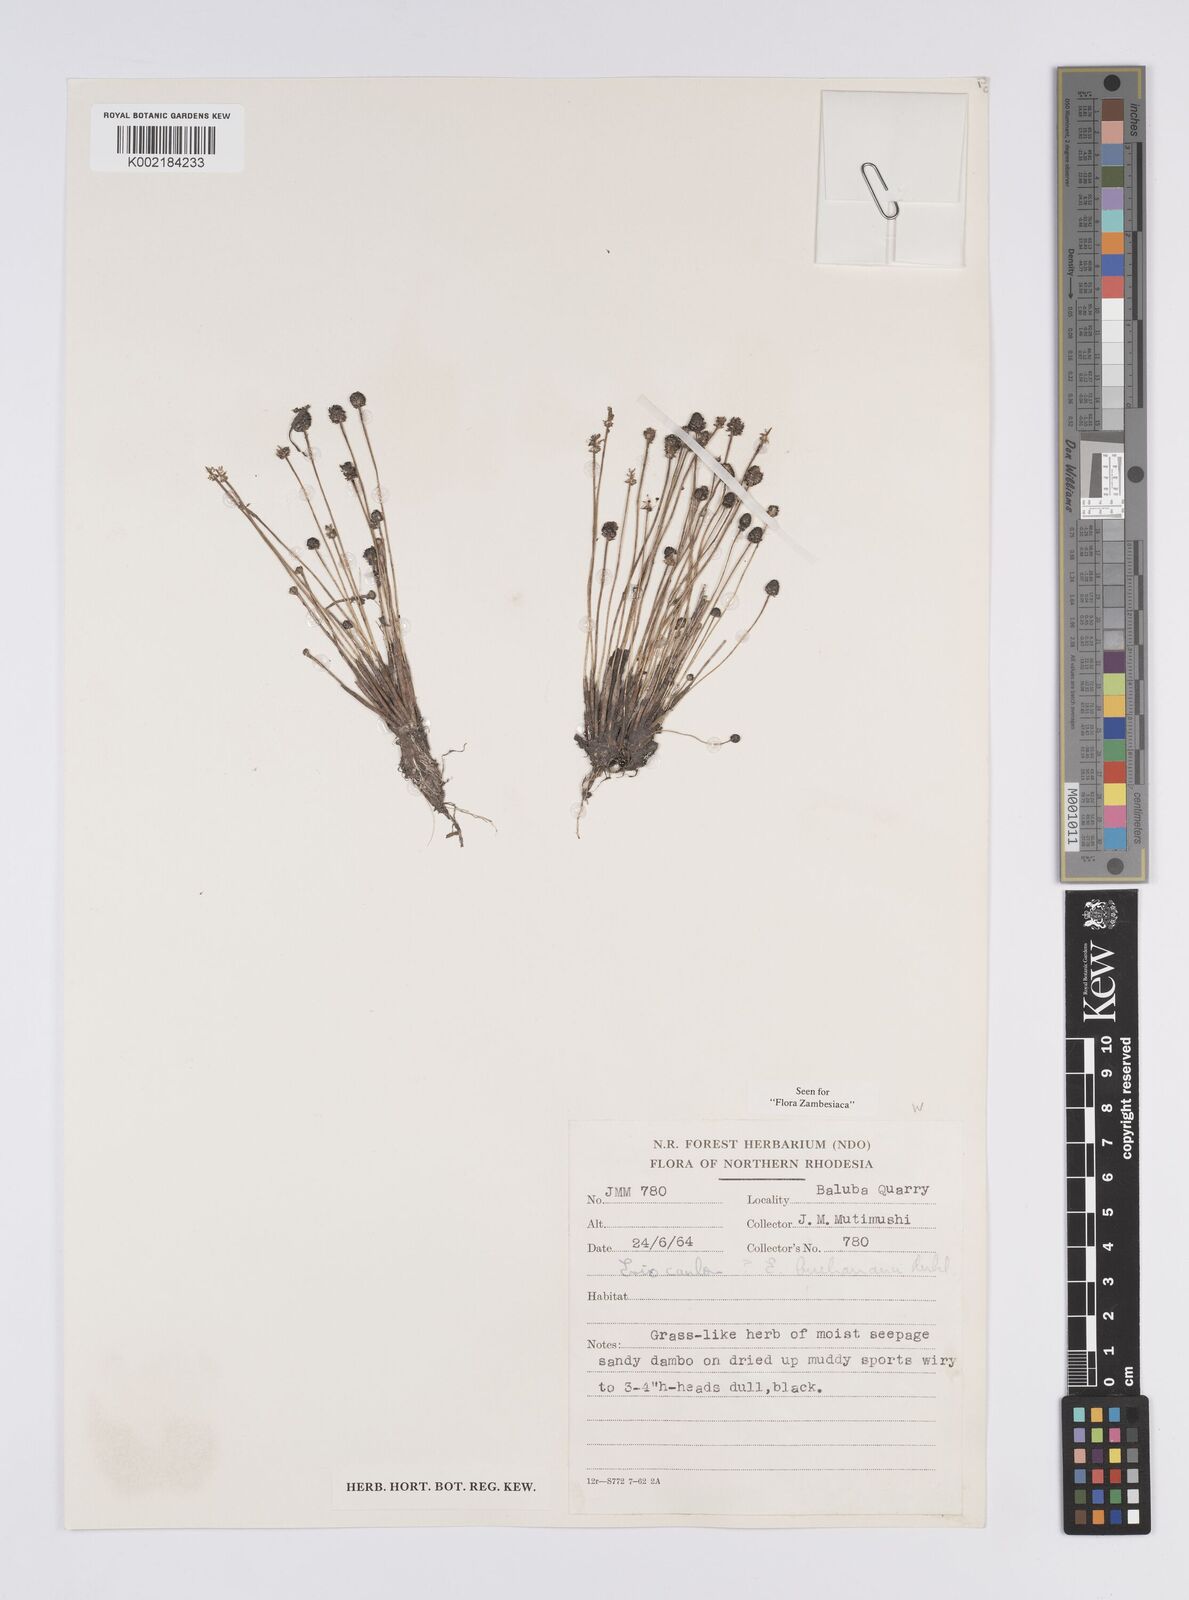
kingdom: Plantae
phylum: Tracheophyta
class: Liliopsida
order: Poales
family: Eriocaulaceae
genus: Eriocaulon
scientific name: Eriocaulon buchananii
